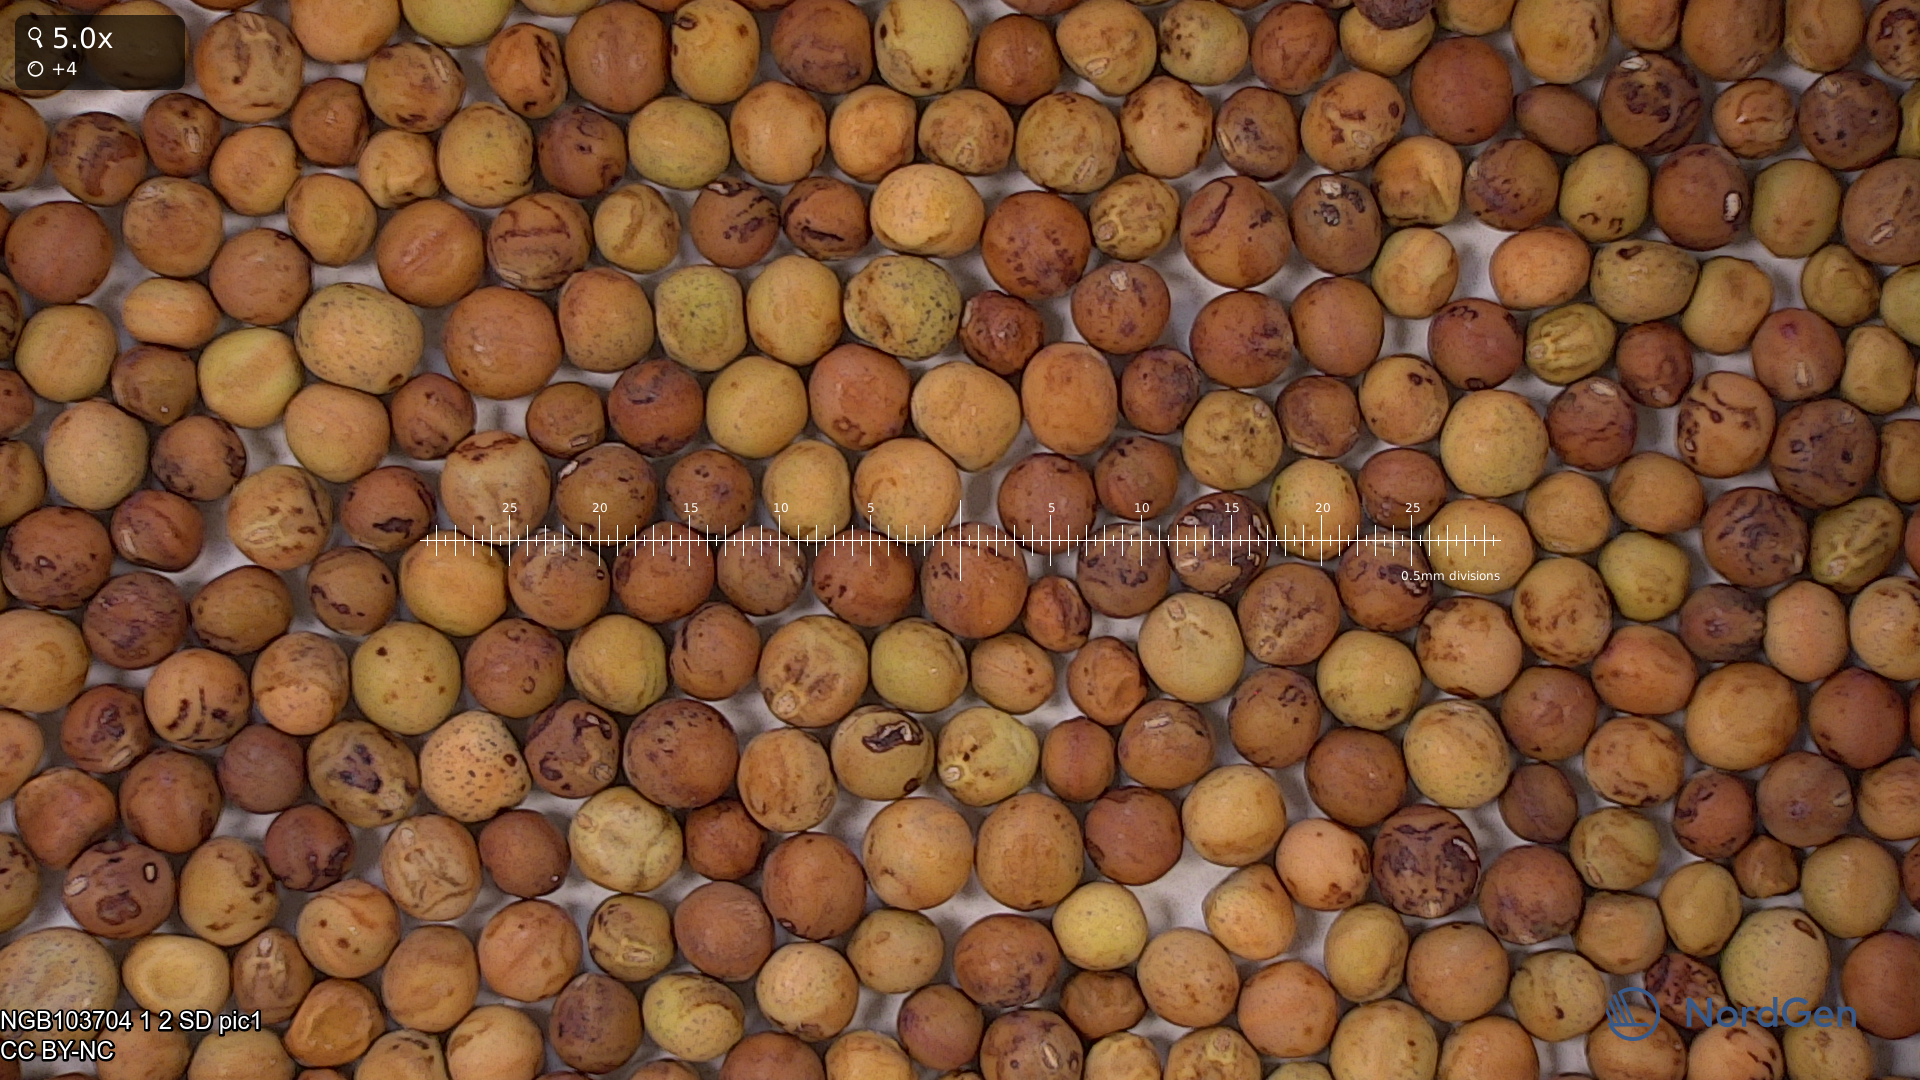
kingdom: Plantae
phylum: Tracheophyta
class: Magnoliopsida
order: Fabales
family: Fabaceae
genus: Lathyrus
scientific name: Lathyrus oleraceus
